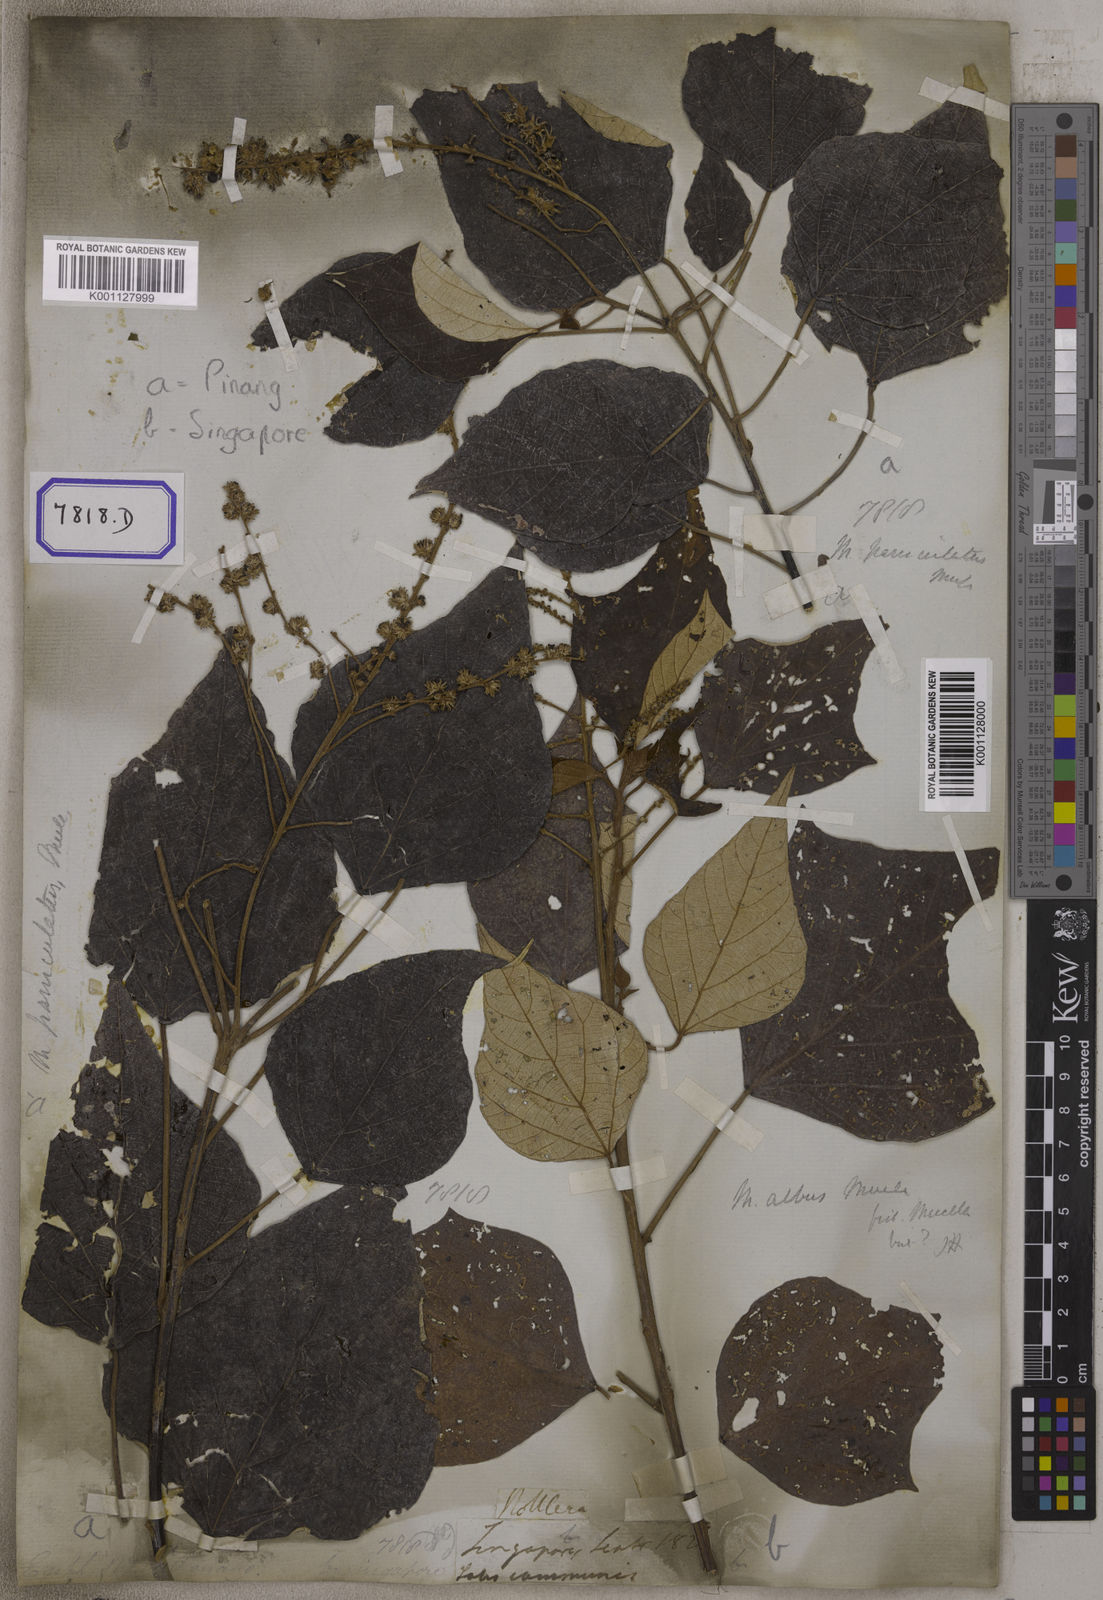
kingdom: Plantae
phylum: Tracheophyta
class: Magnoliopsida
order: Malpighiales
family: Euphorbiaceae
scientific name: Euphorbiaceae
